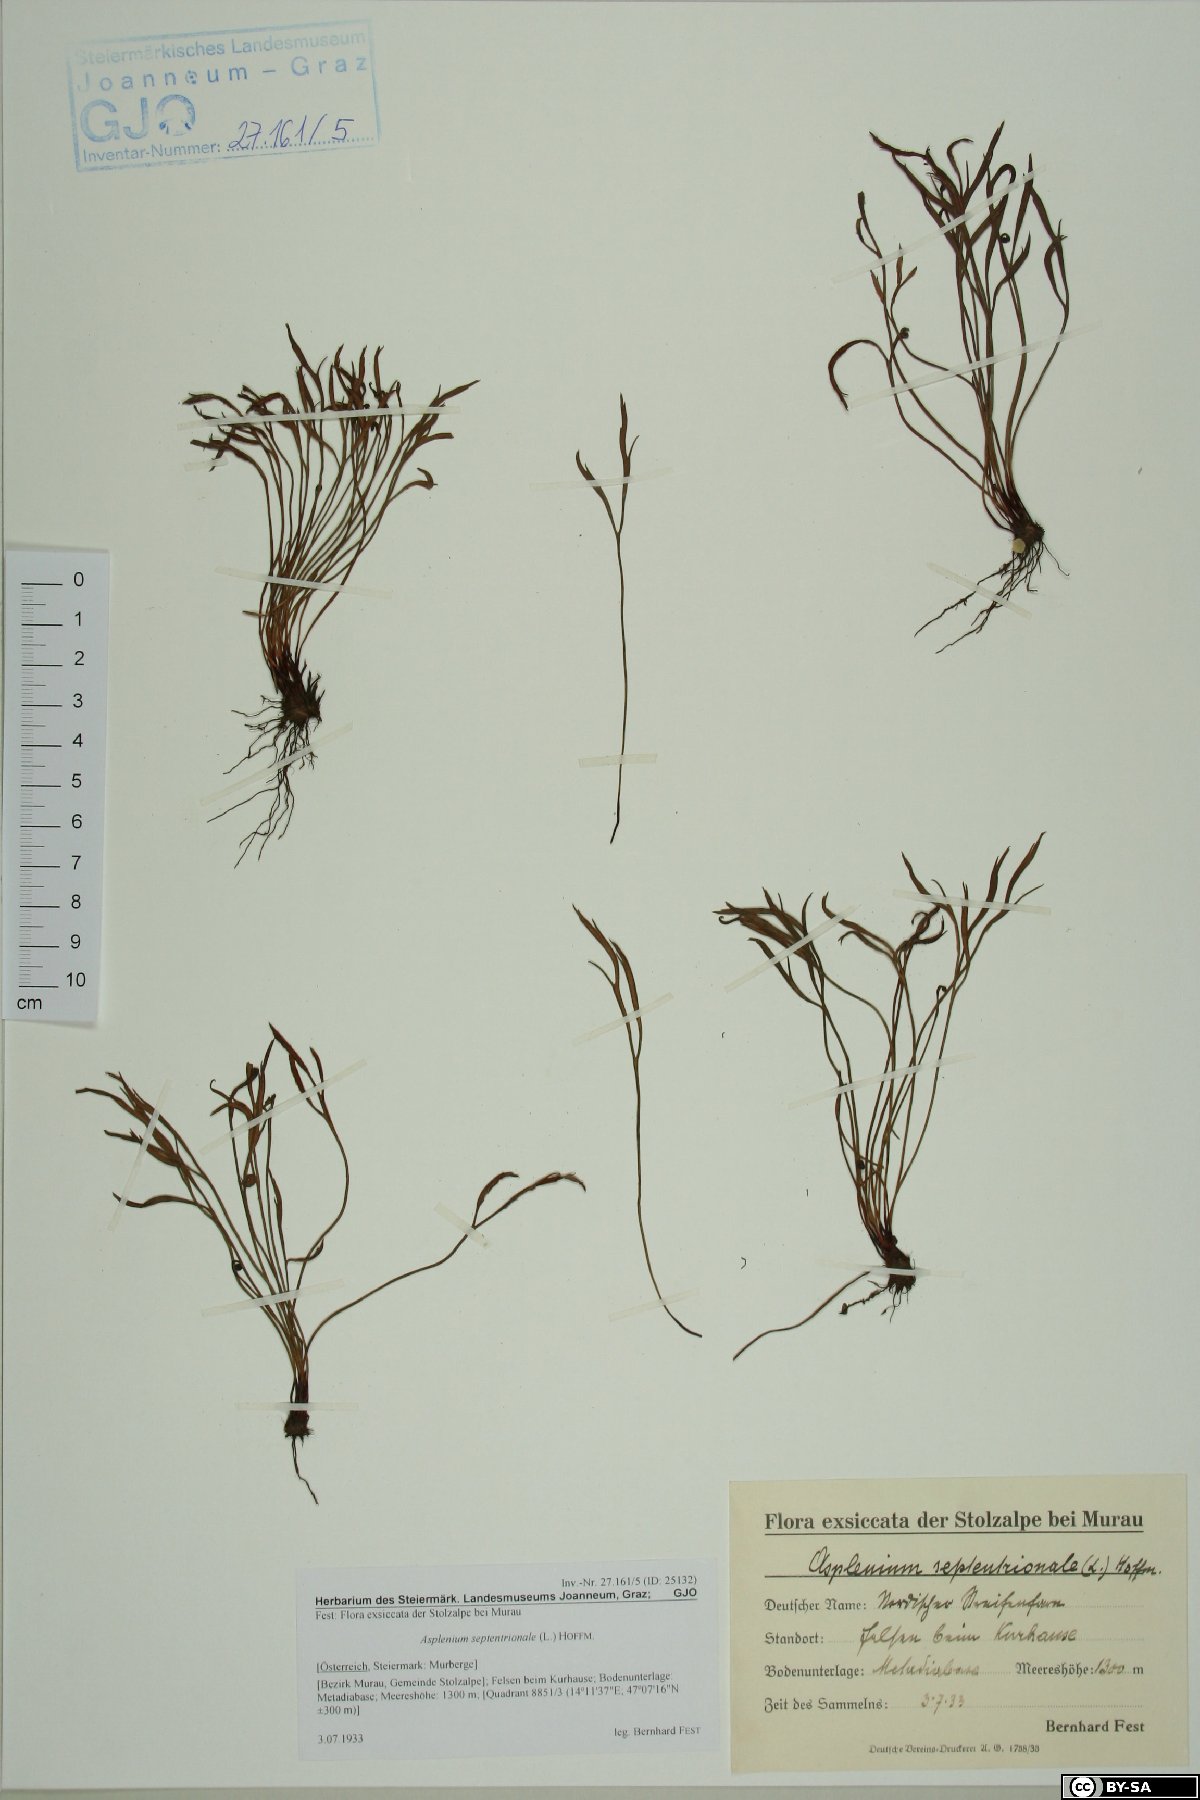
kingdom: Plantae
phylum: Tracheophyta
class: Polypodiopsida
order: Polypodiales
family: Aspleniaceae
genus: Asplenium
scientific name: Asplenium septentrionale
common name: Forked spleenwort
